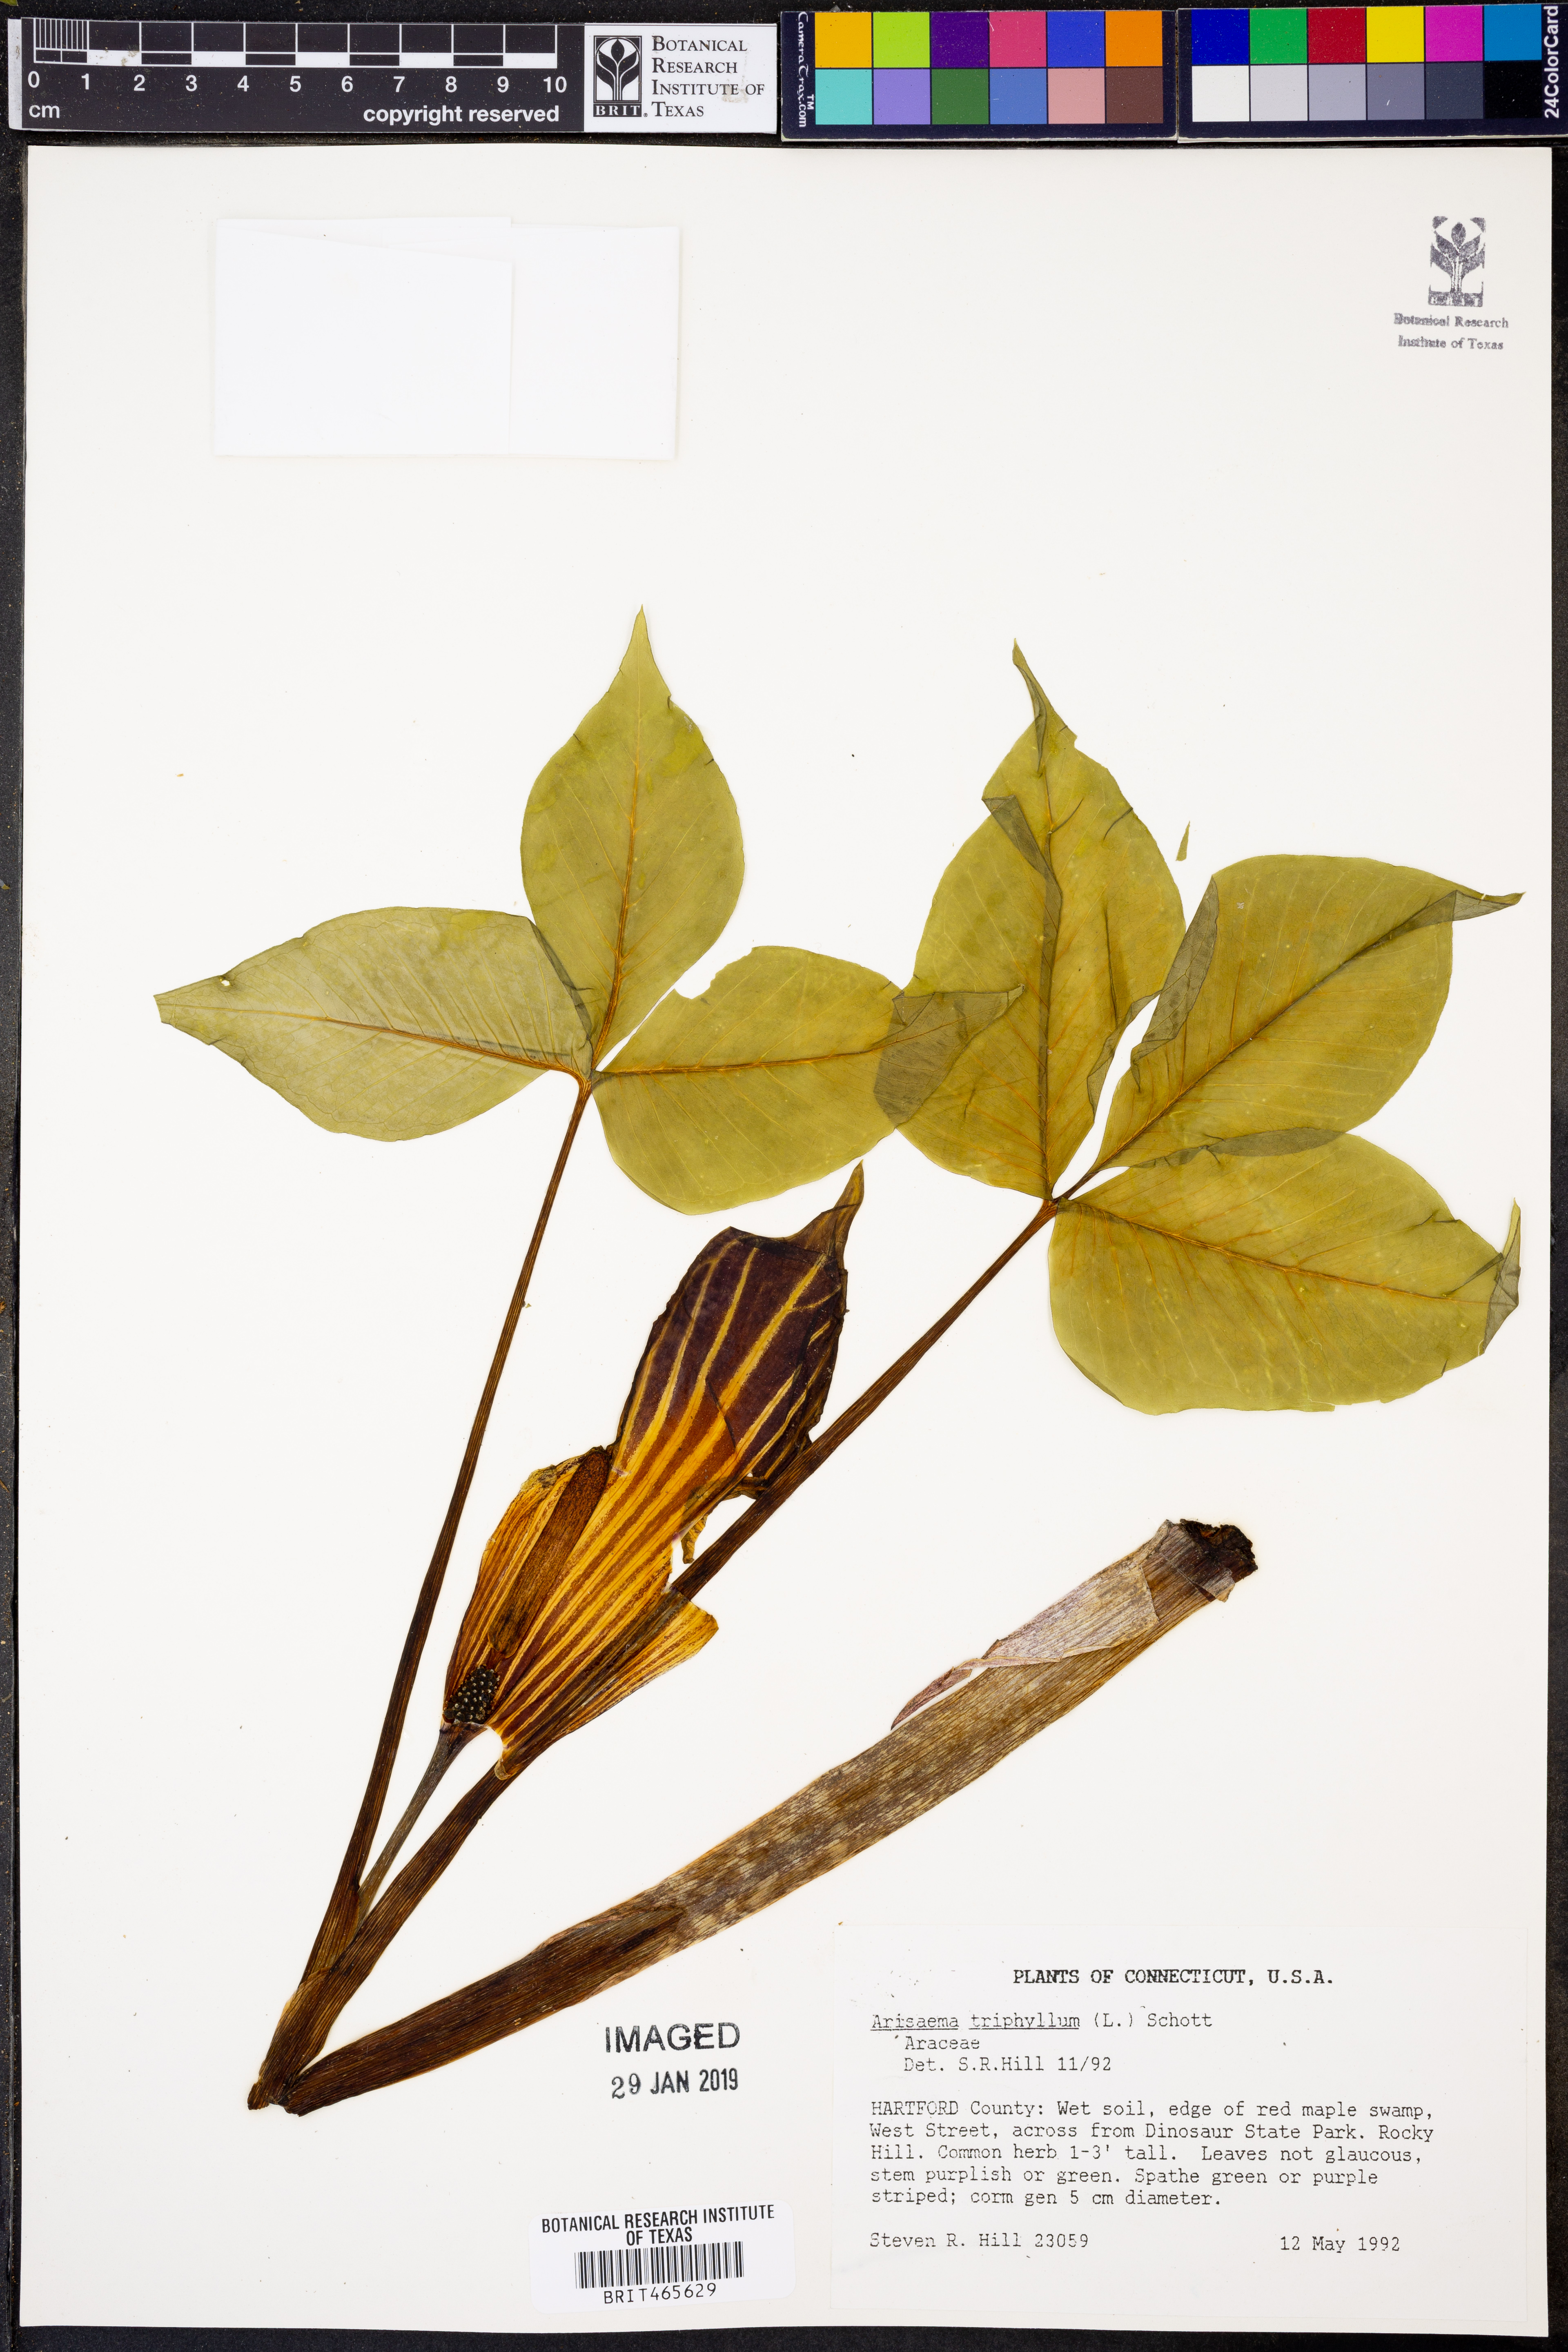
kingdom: Plantae
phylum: Tracheophyta
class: Liliopsida
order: Alismatales
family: Araceae
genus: Arisaema
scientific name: Arisaema triphyllum
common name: Jack-in-the-pulpit
